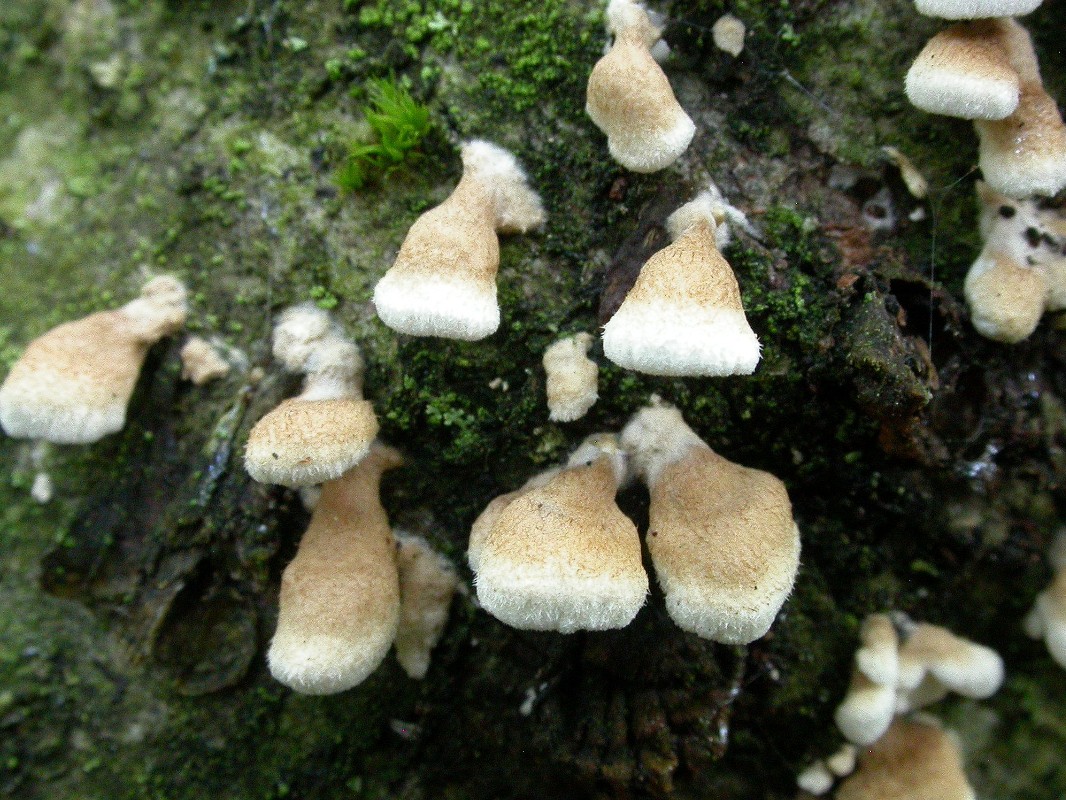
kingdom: Fungi
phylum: Basidiomycota
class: Agaricomycetes
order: Amylocorticiales
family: Amylocorticiaceae
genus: Plicaturopsis
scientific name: Plicaturopsis crispa
